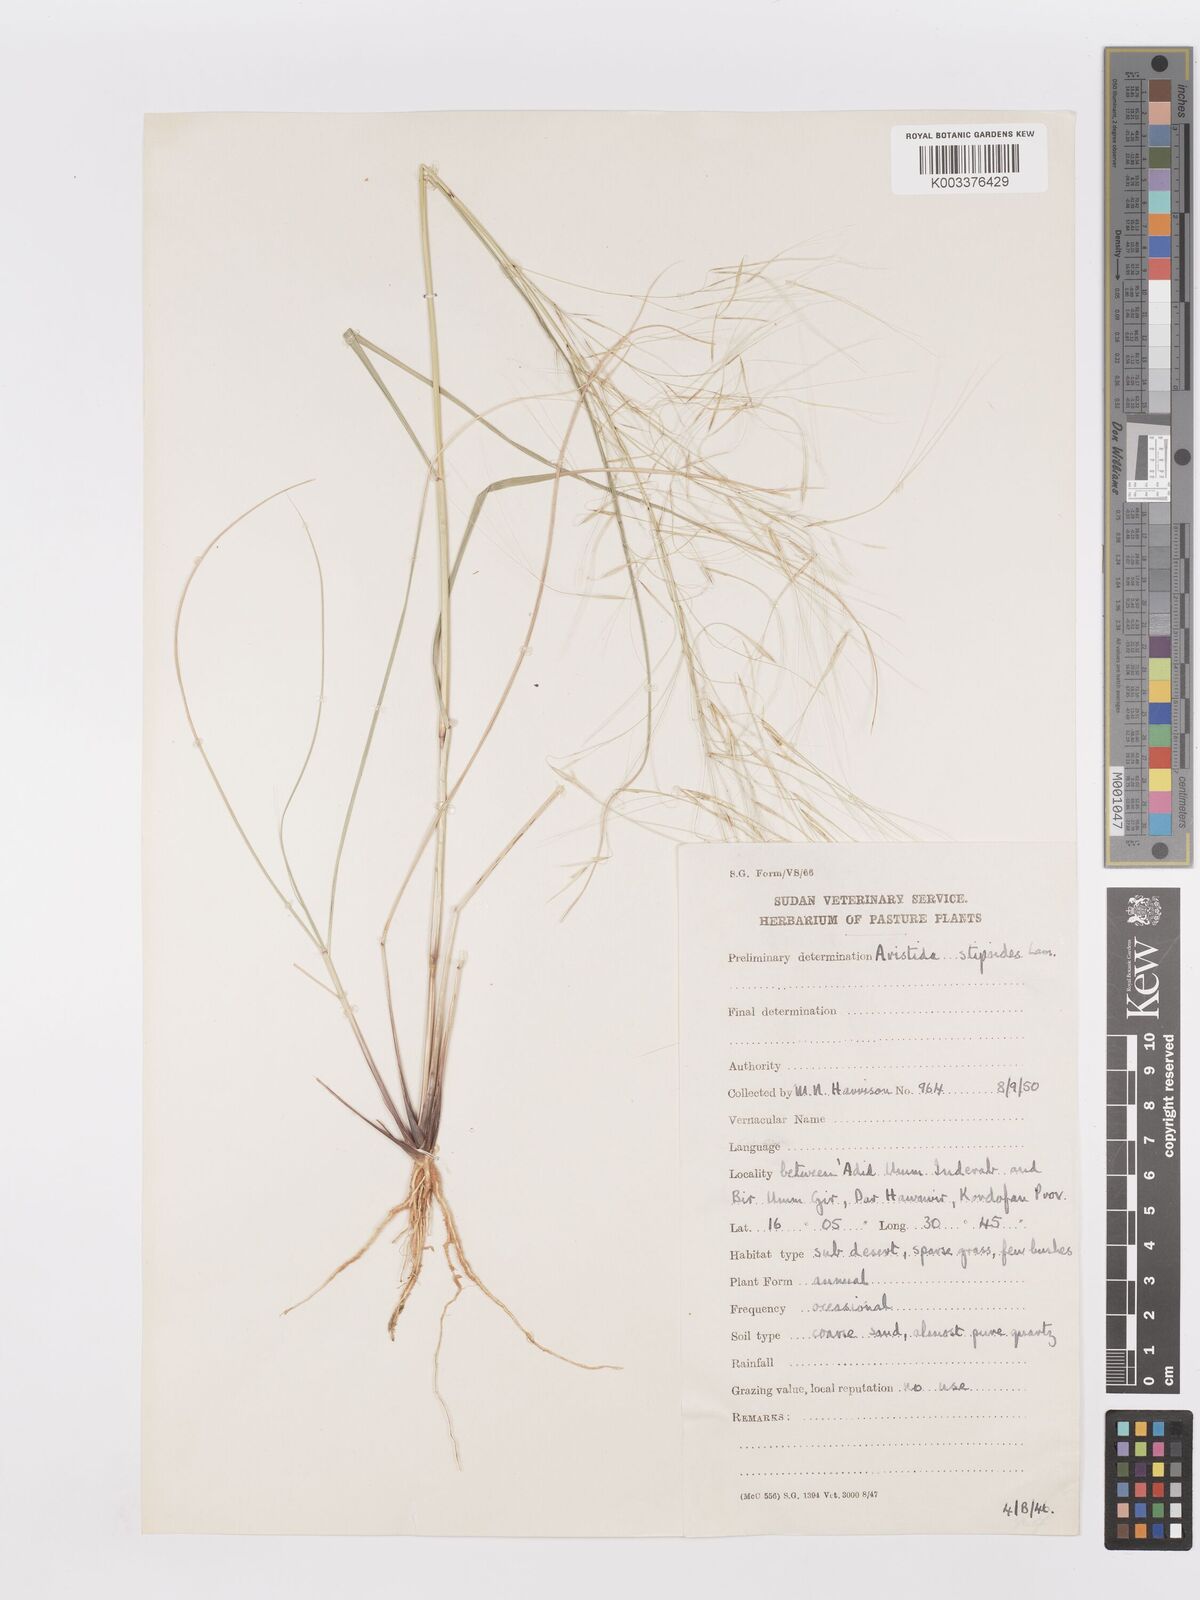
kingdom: Plantae
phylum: Tracheophyta
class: Liliopsida
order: Poales
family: Poaceae
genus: Aristida
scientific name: Aristida stipoides
